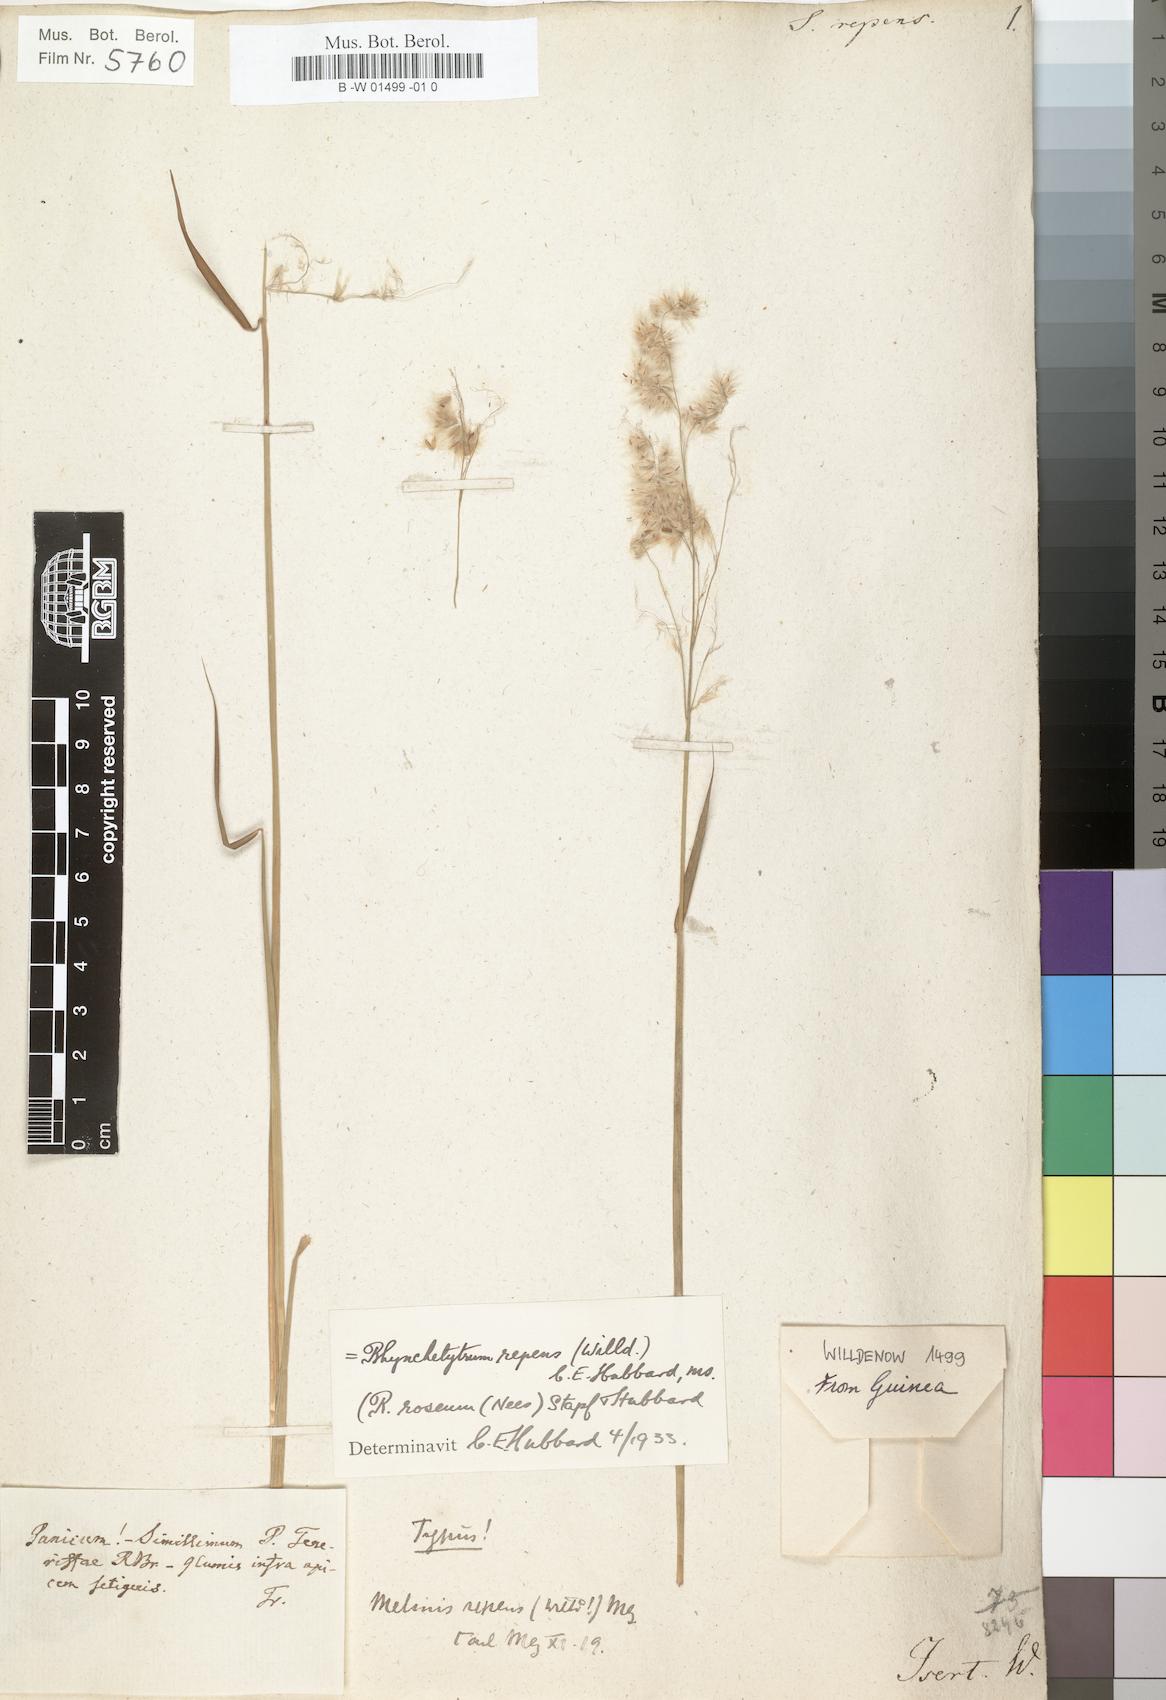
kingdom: Plantae
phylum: Tracheophyta
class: Liliopsida
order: Poales
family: Poaceae
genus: Melinis
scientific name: Melinis repens
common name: Rose natal grass
